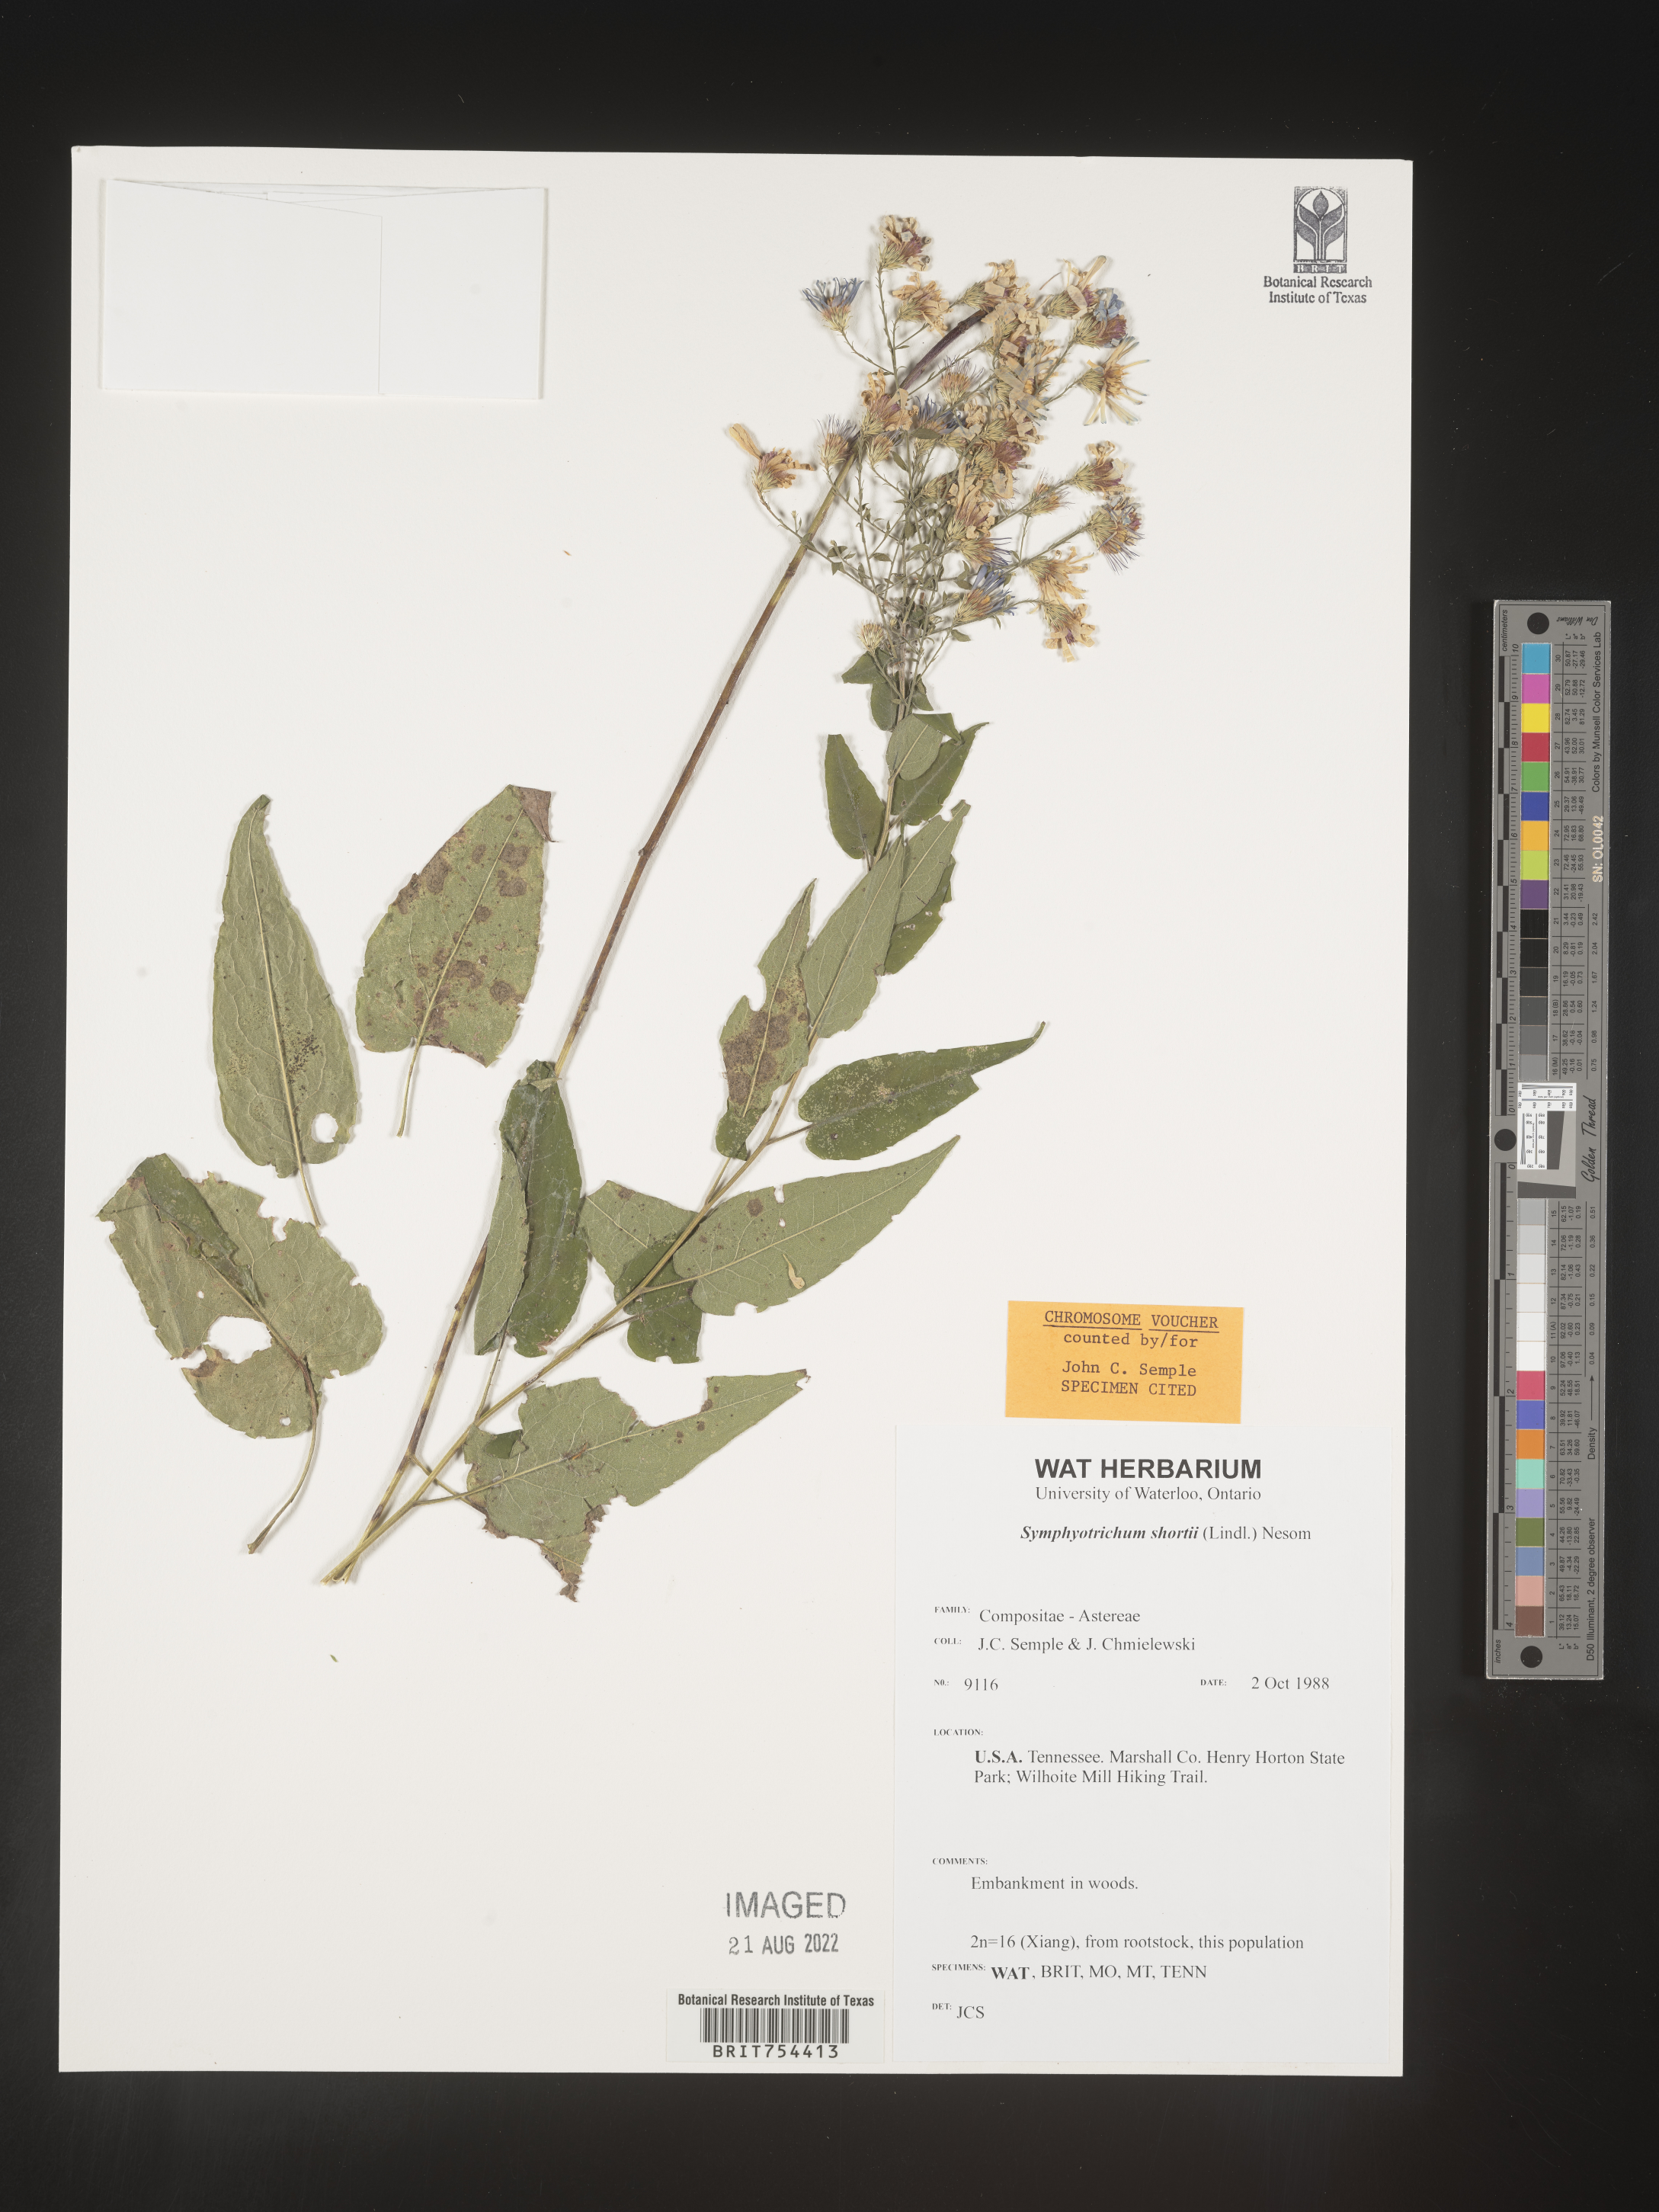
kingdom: Plantae
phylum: Tracheophyta
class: Magnoliopsida
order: Asterales
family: Asteraceae
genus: Symphyotrichum
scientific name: Symphyotrichum shortii
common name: Short's aster
